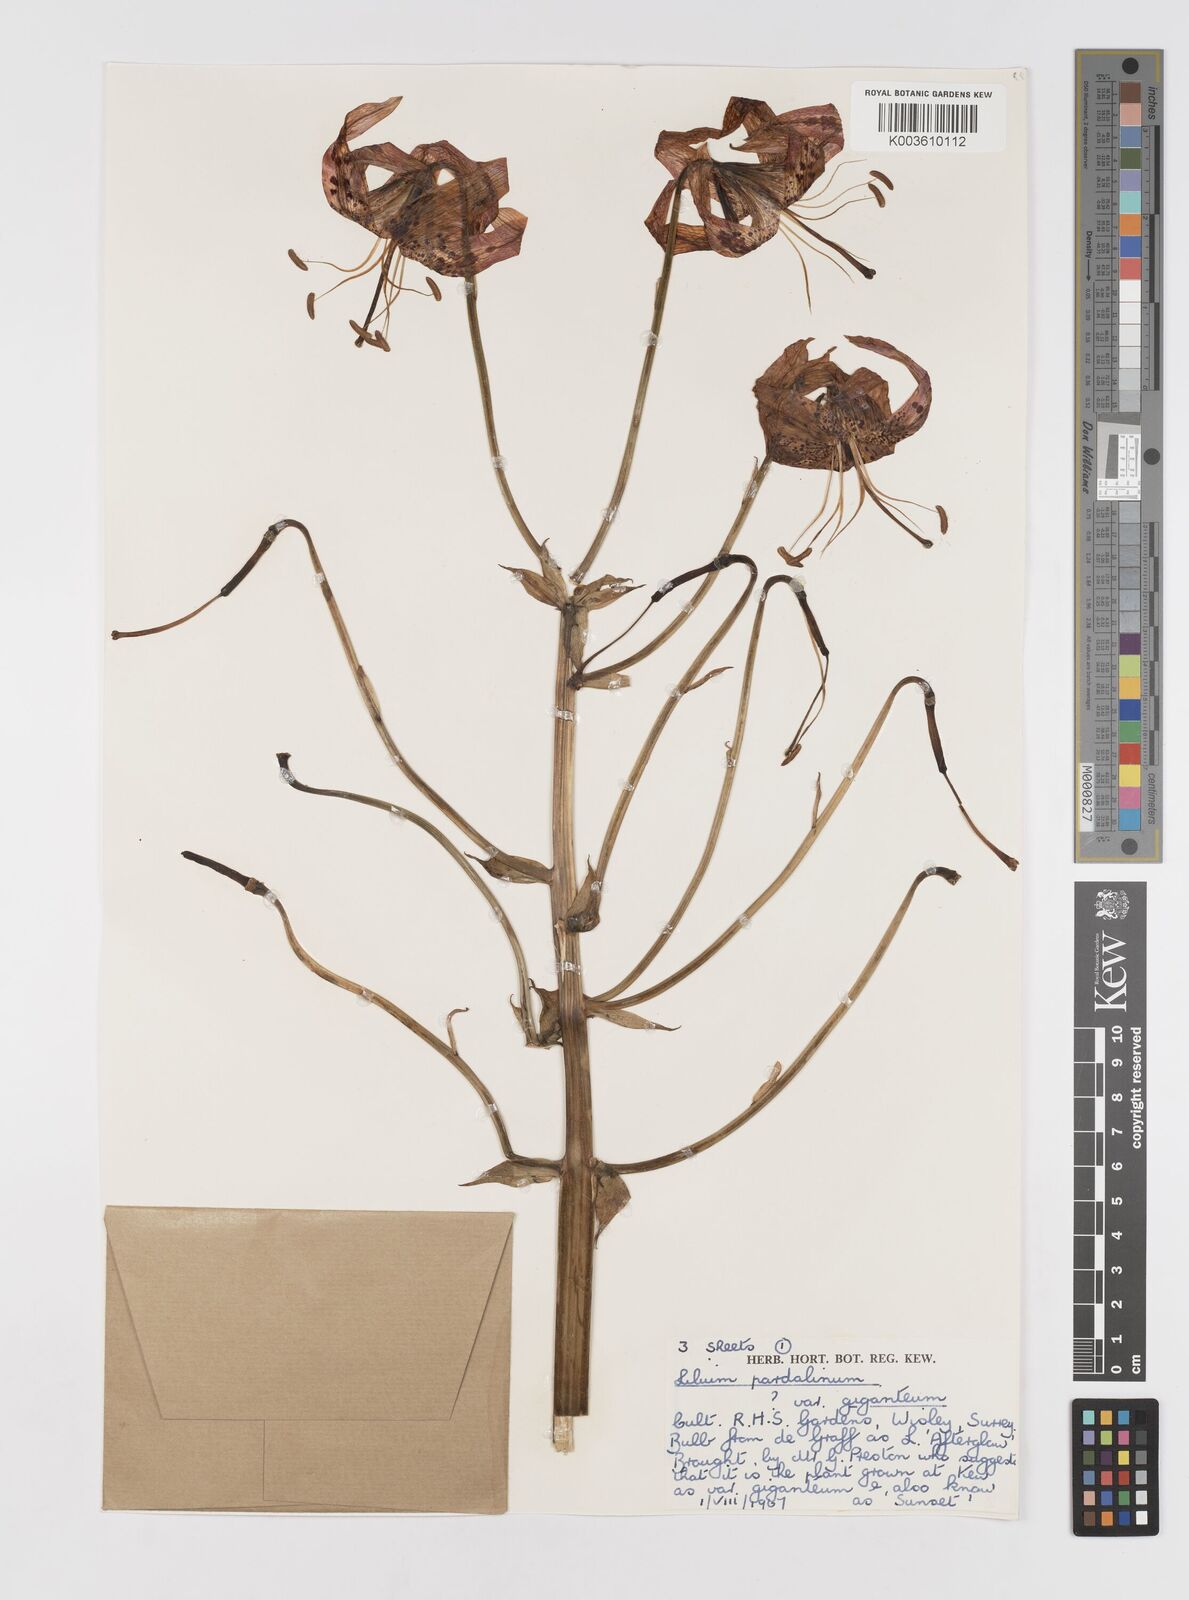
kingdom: Plantae
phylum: Tracheophyta
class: Liliopsida
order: Liliales
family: Liliaceae
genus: Lilium
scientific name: Lilium pardalinum
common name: Panther lily
